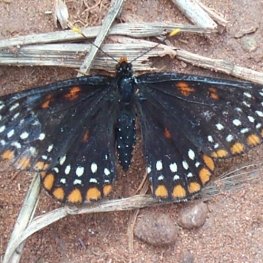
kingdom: Animalia
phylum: Arthropoda
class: Insecta
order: Lepidoptera
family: Nymphalidae
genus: Euphydryas
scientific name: Euphydryas phaeton
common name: Baltimore Checkerspot
